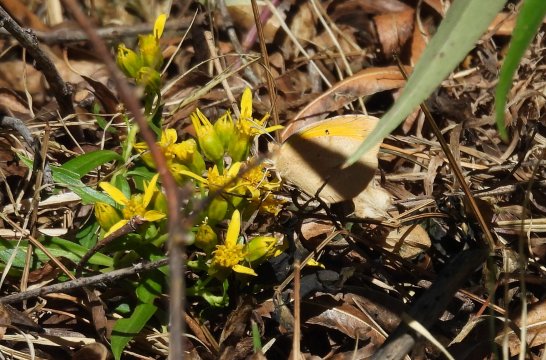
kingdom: Animalia
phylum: Arthropoda
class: Insecta
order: Lepidoptera
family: Pieridae
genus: Abaeis
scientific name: Abaeis nicippe
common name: Sleepy Orange
